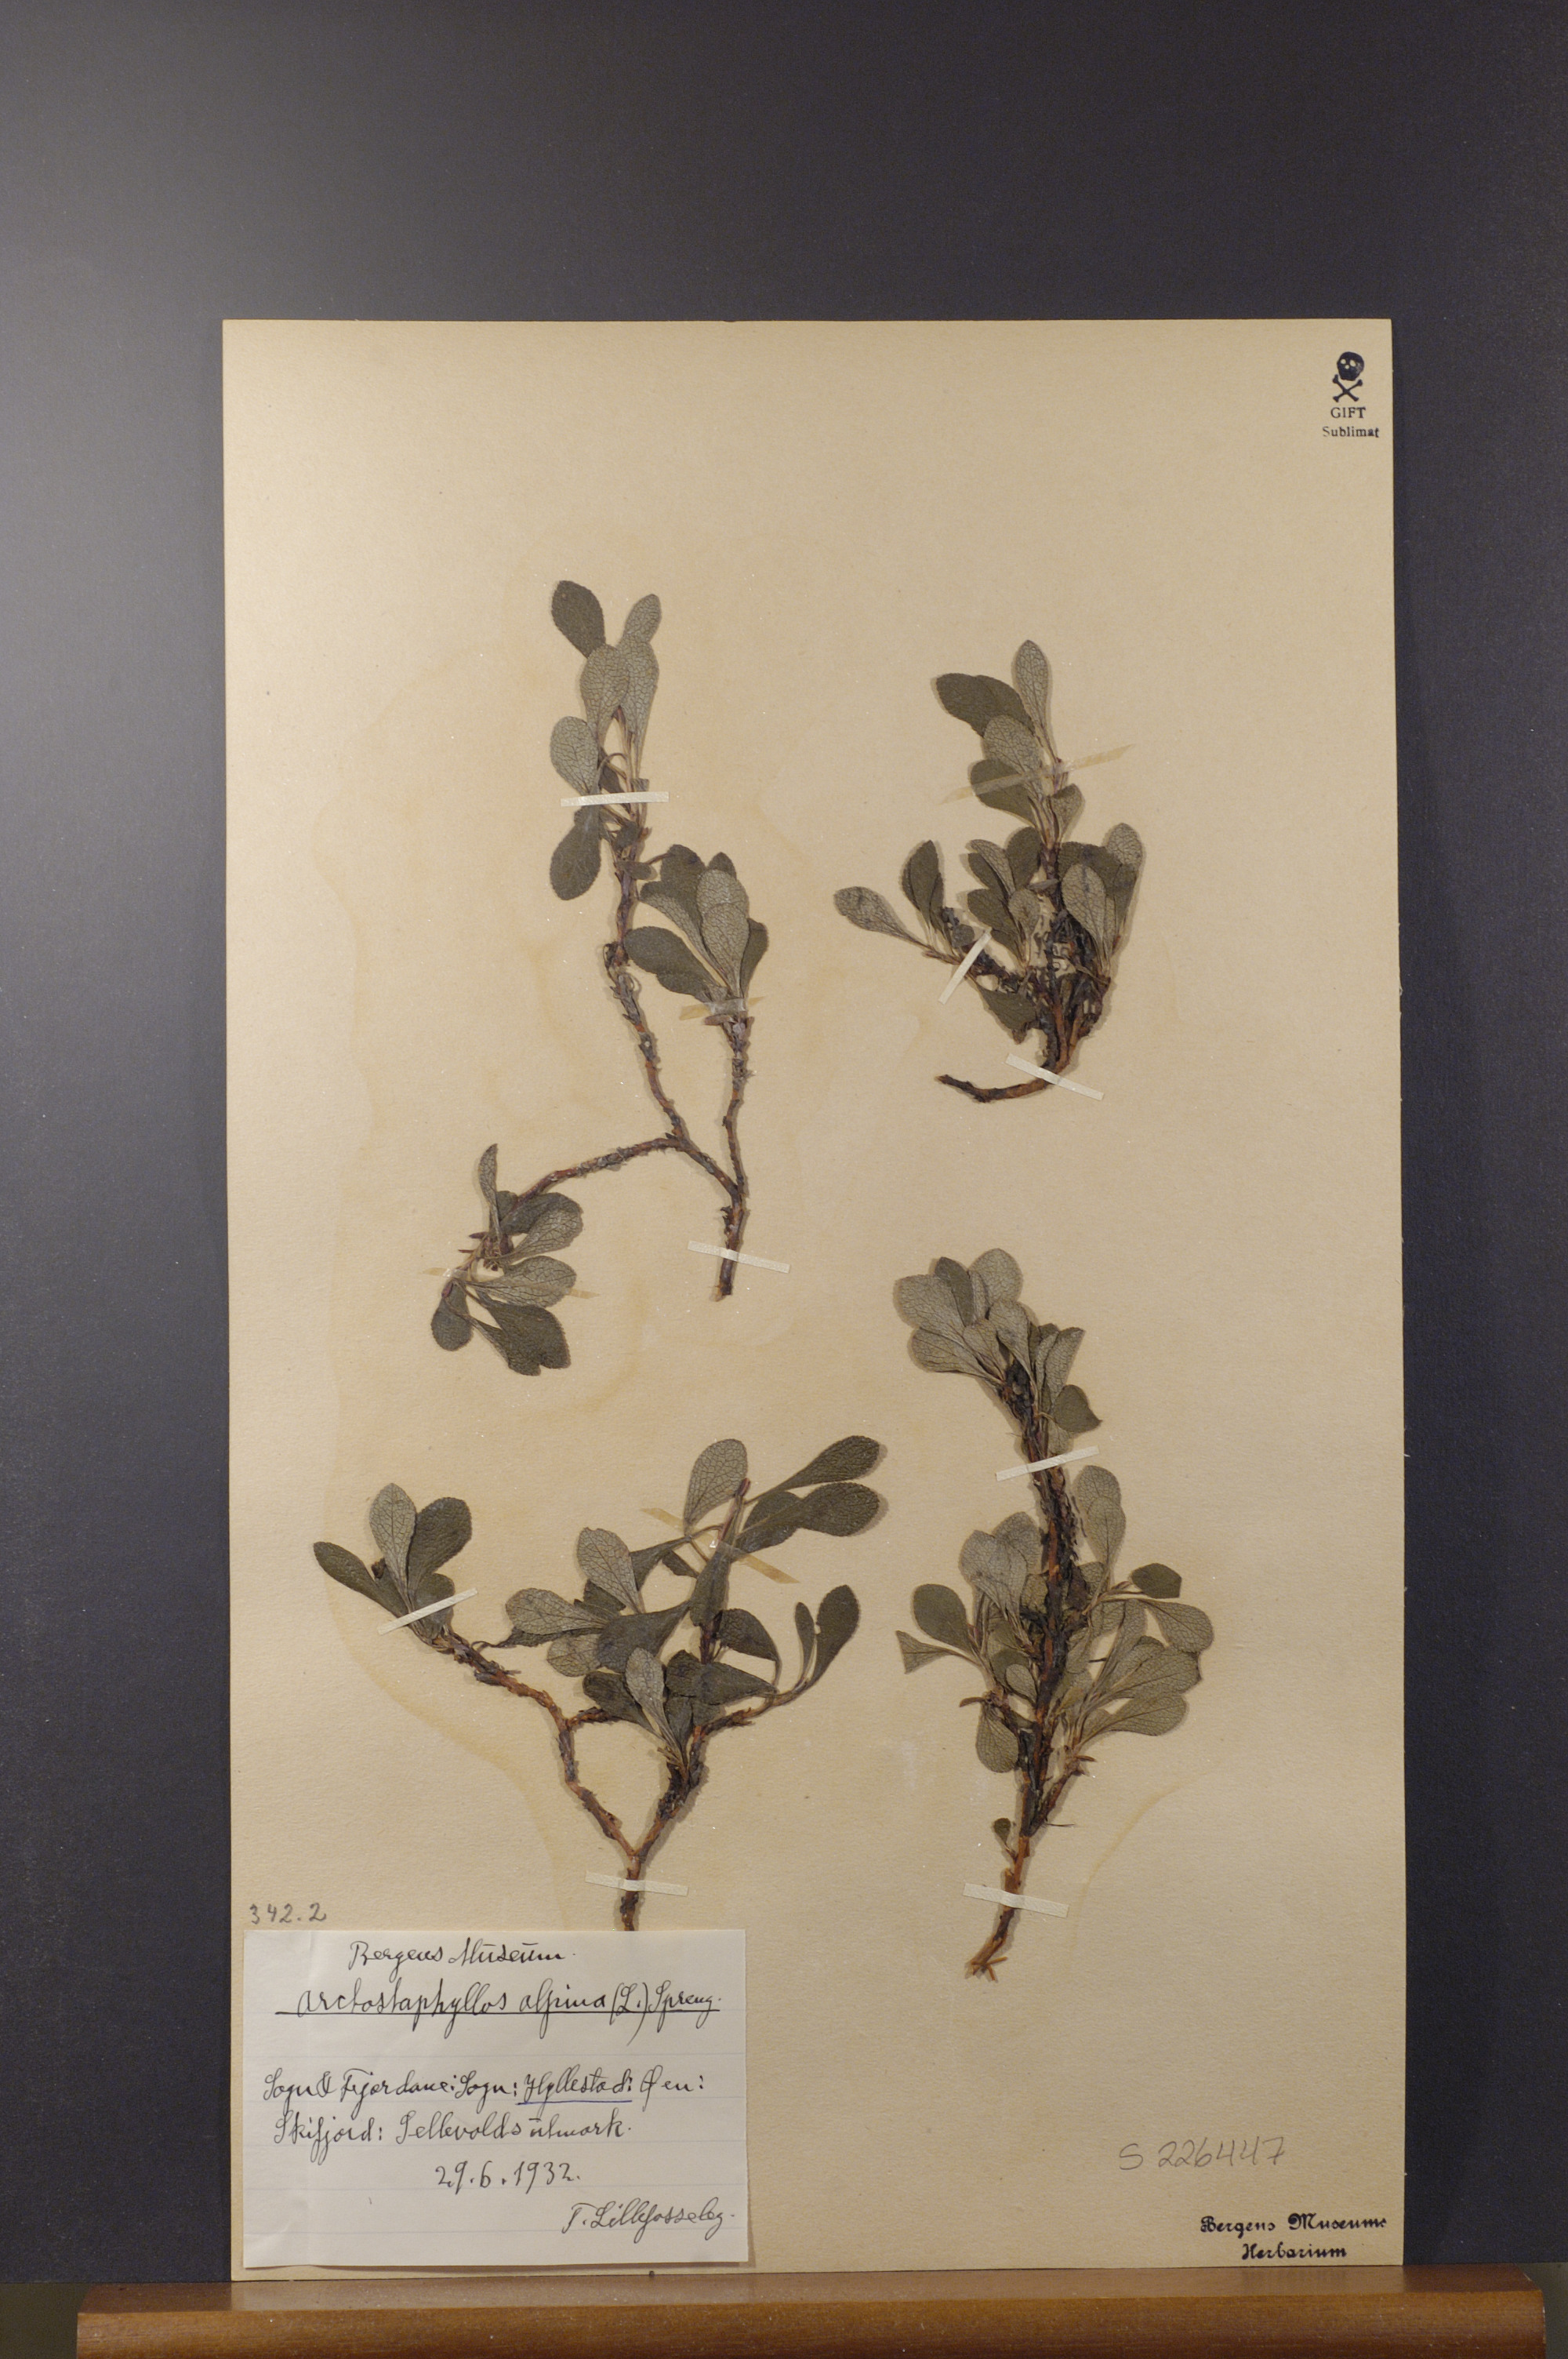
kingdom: Plantae
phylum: Tracheophyta
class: Magnoliopsida
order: Ericales
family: Ericaceae
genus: Arctostaphylos
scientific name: Arctostaphylos alpinus
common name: Alpine bearberry
